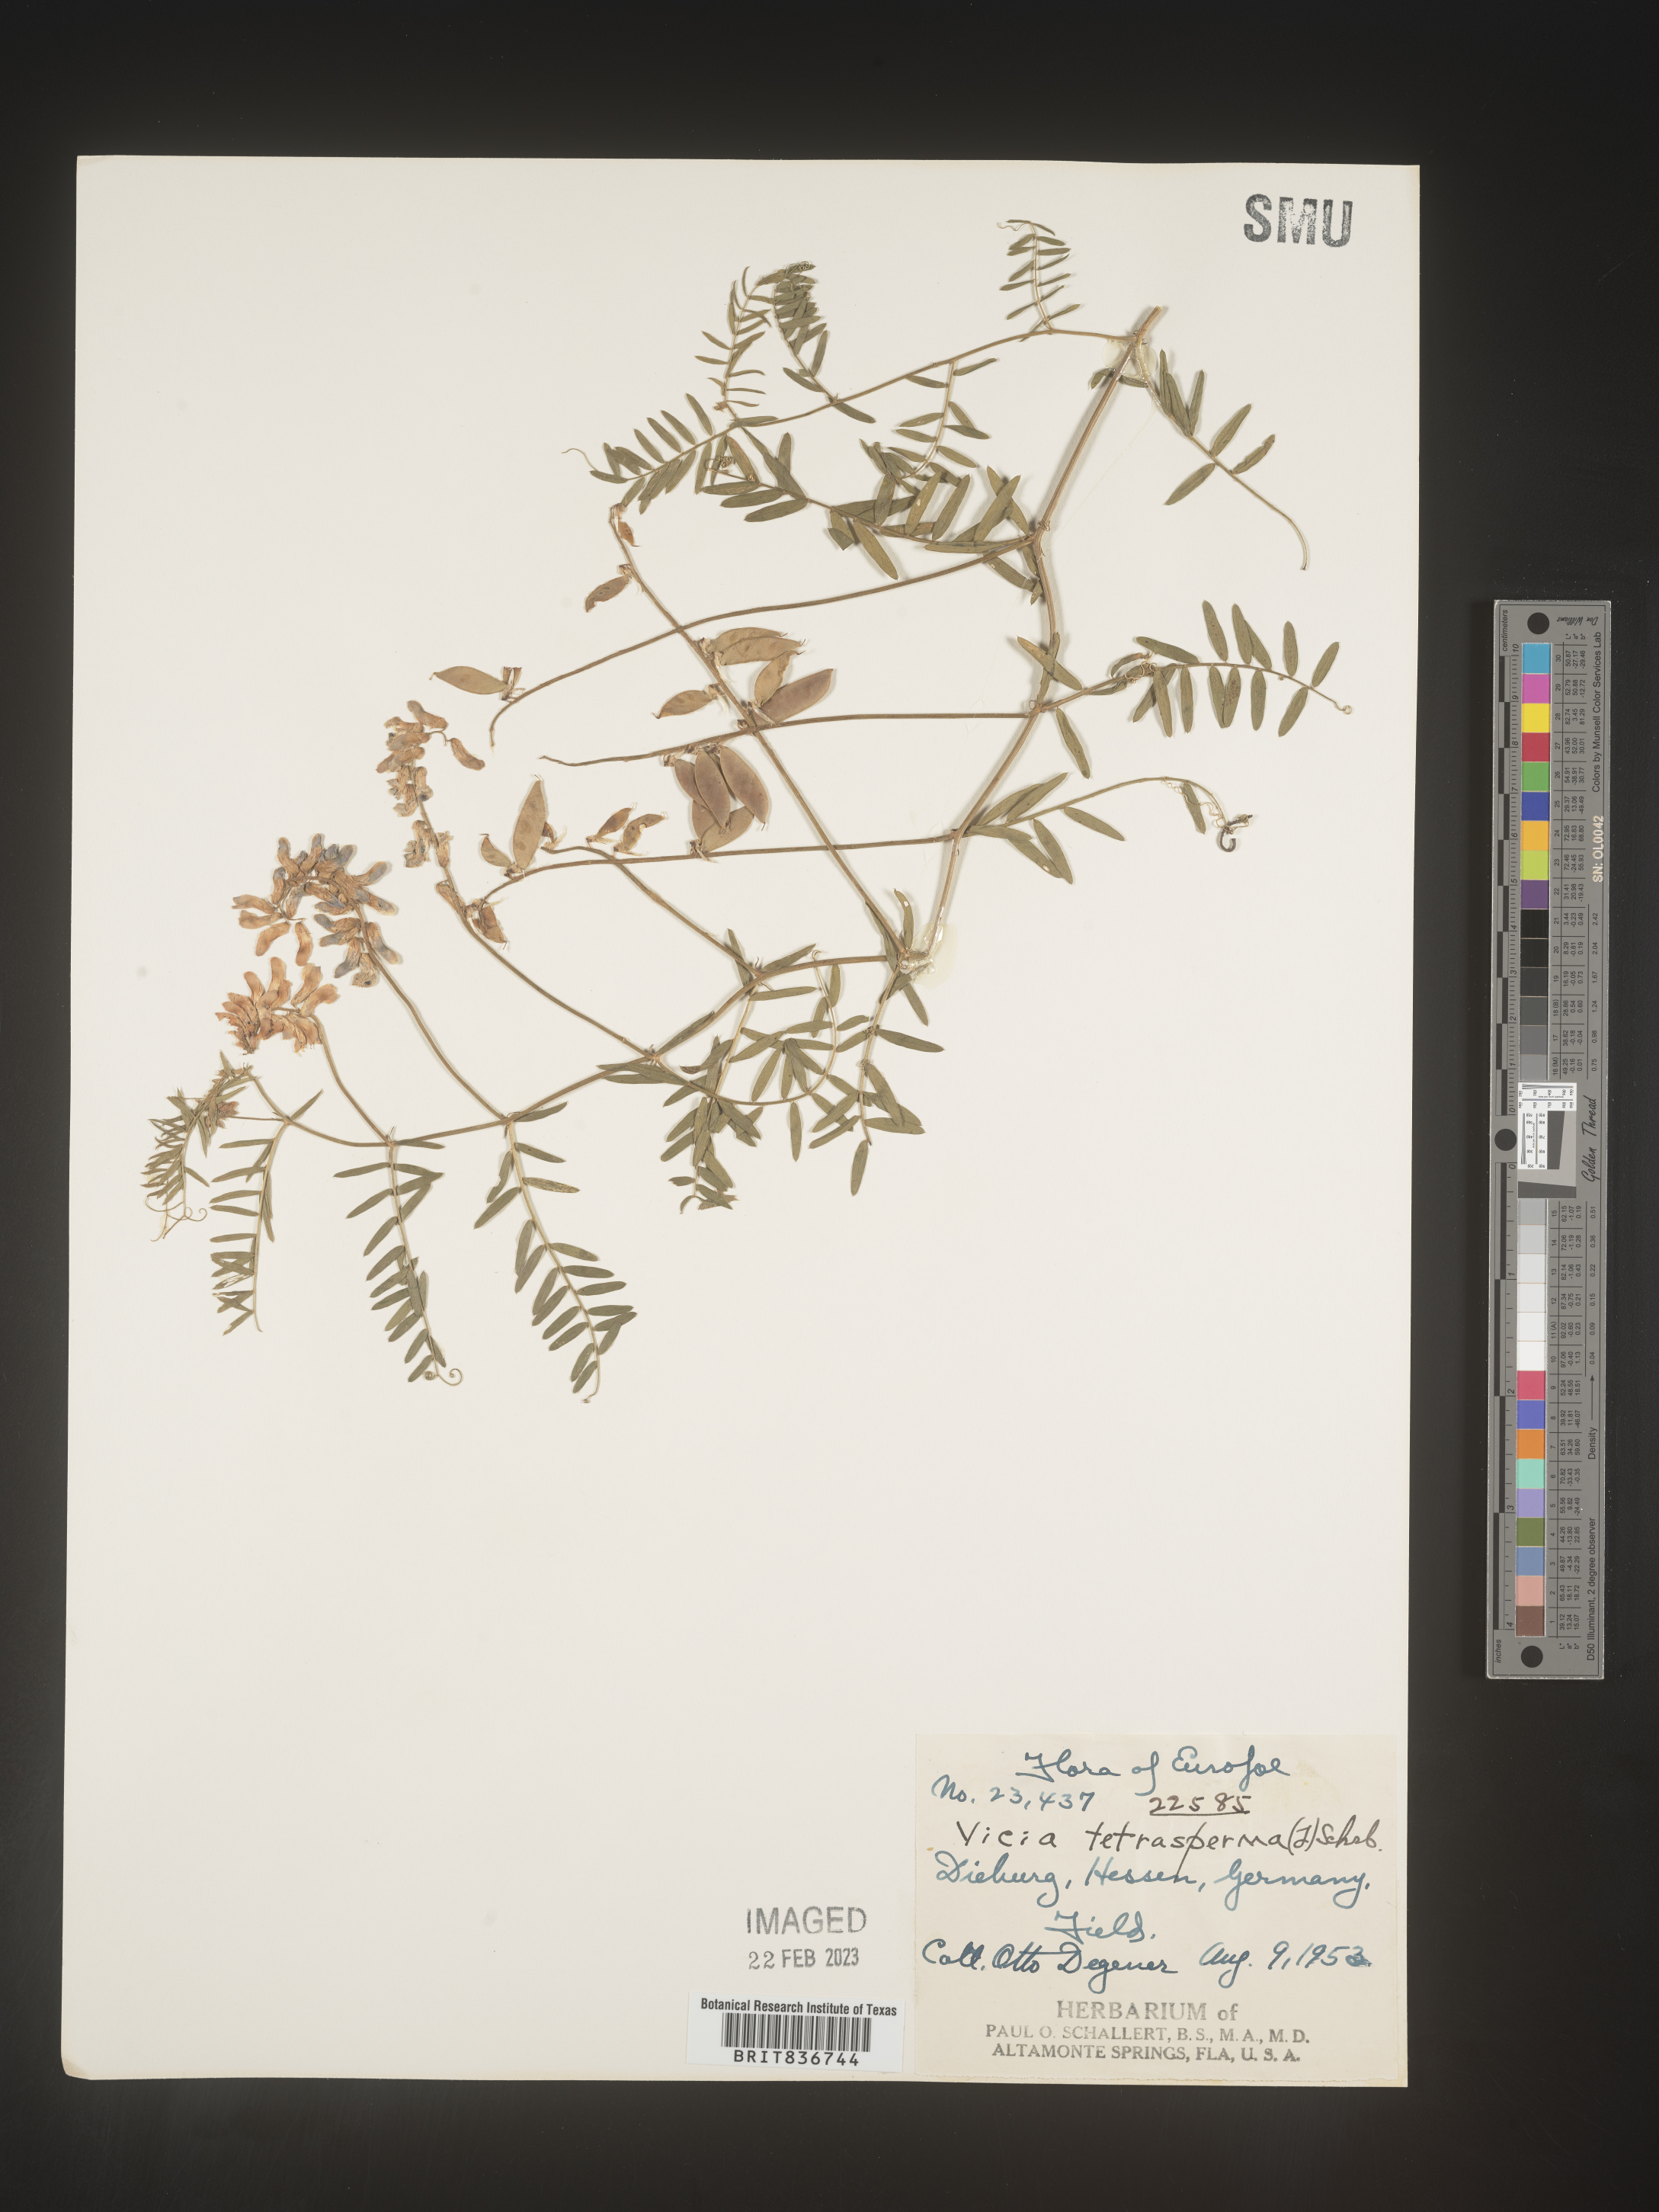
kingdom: Plantae
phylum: Tracheophyta
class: Magnoliopsida
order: Fabales
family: Fabaceae
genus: Vicia
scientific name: Vicia
